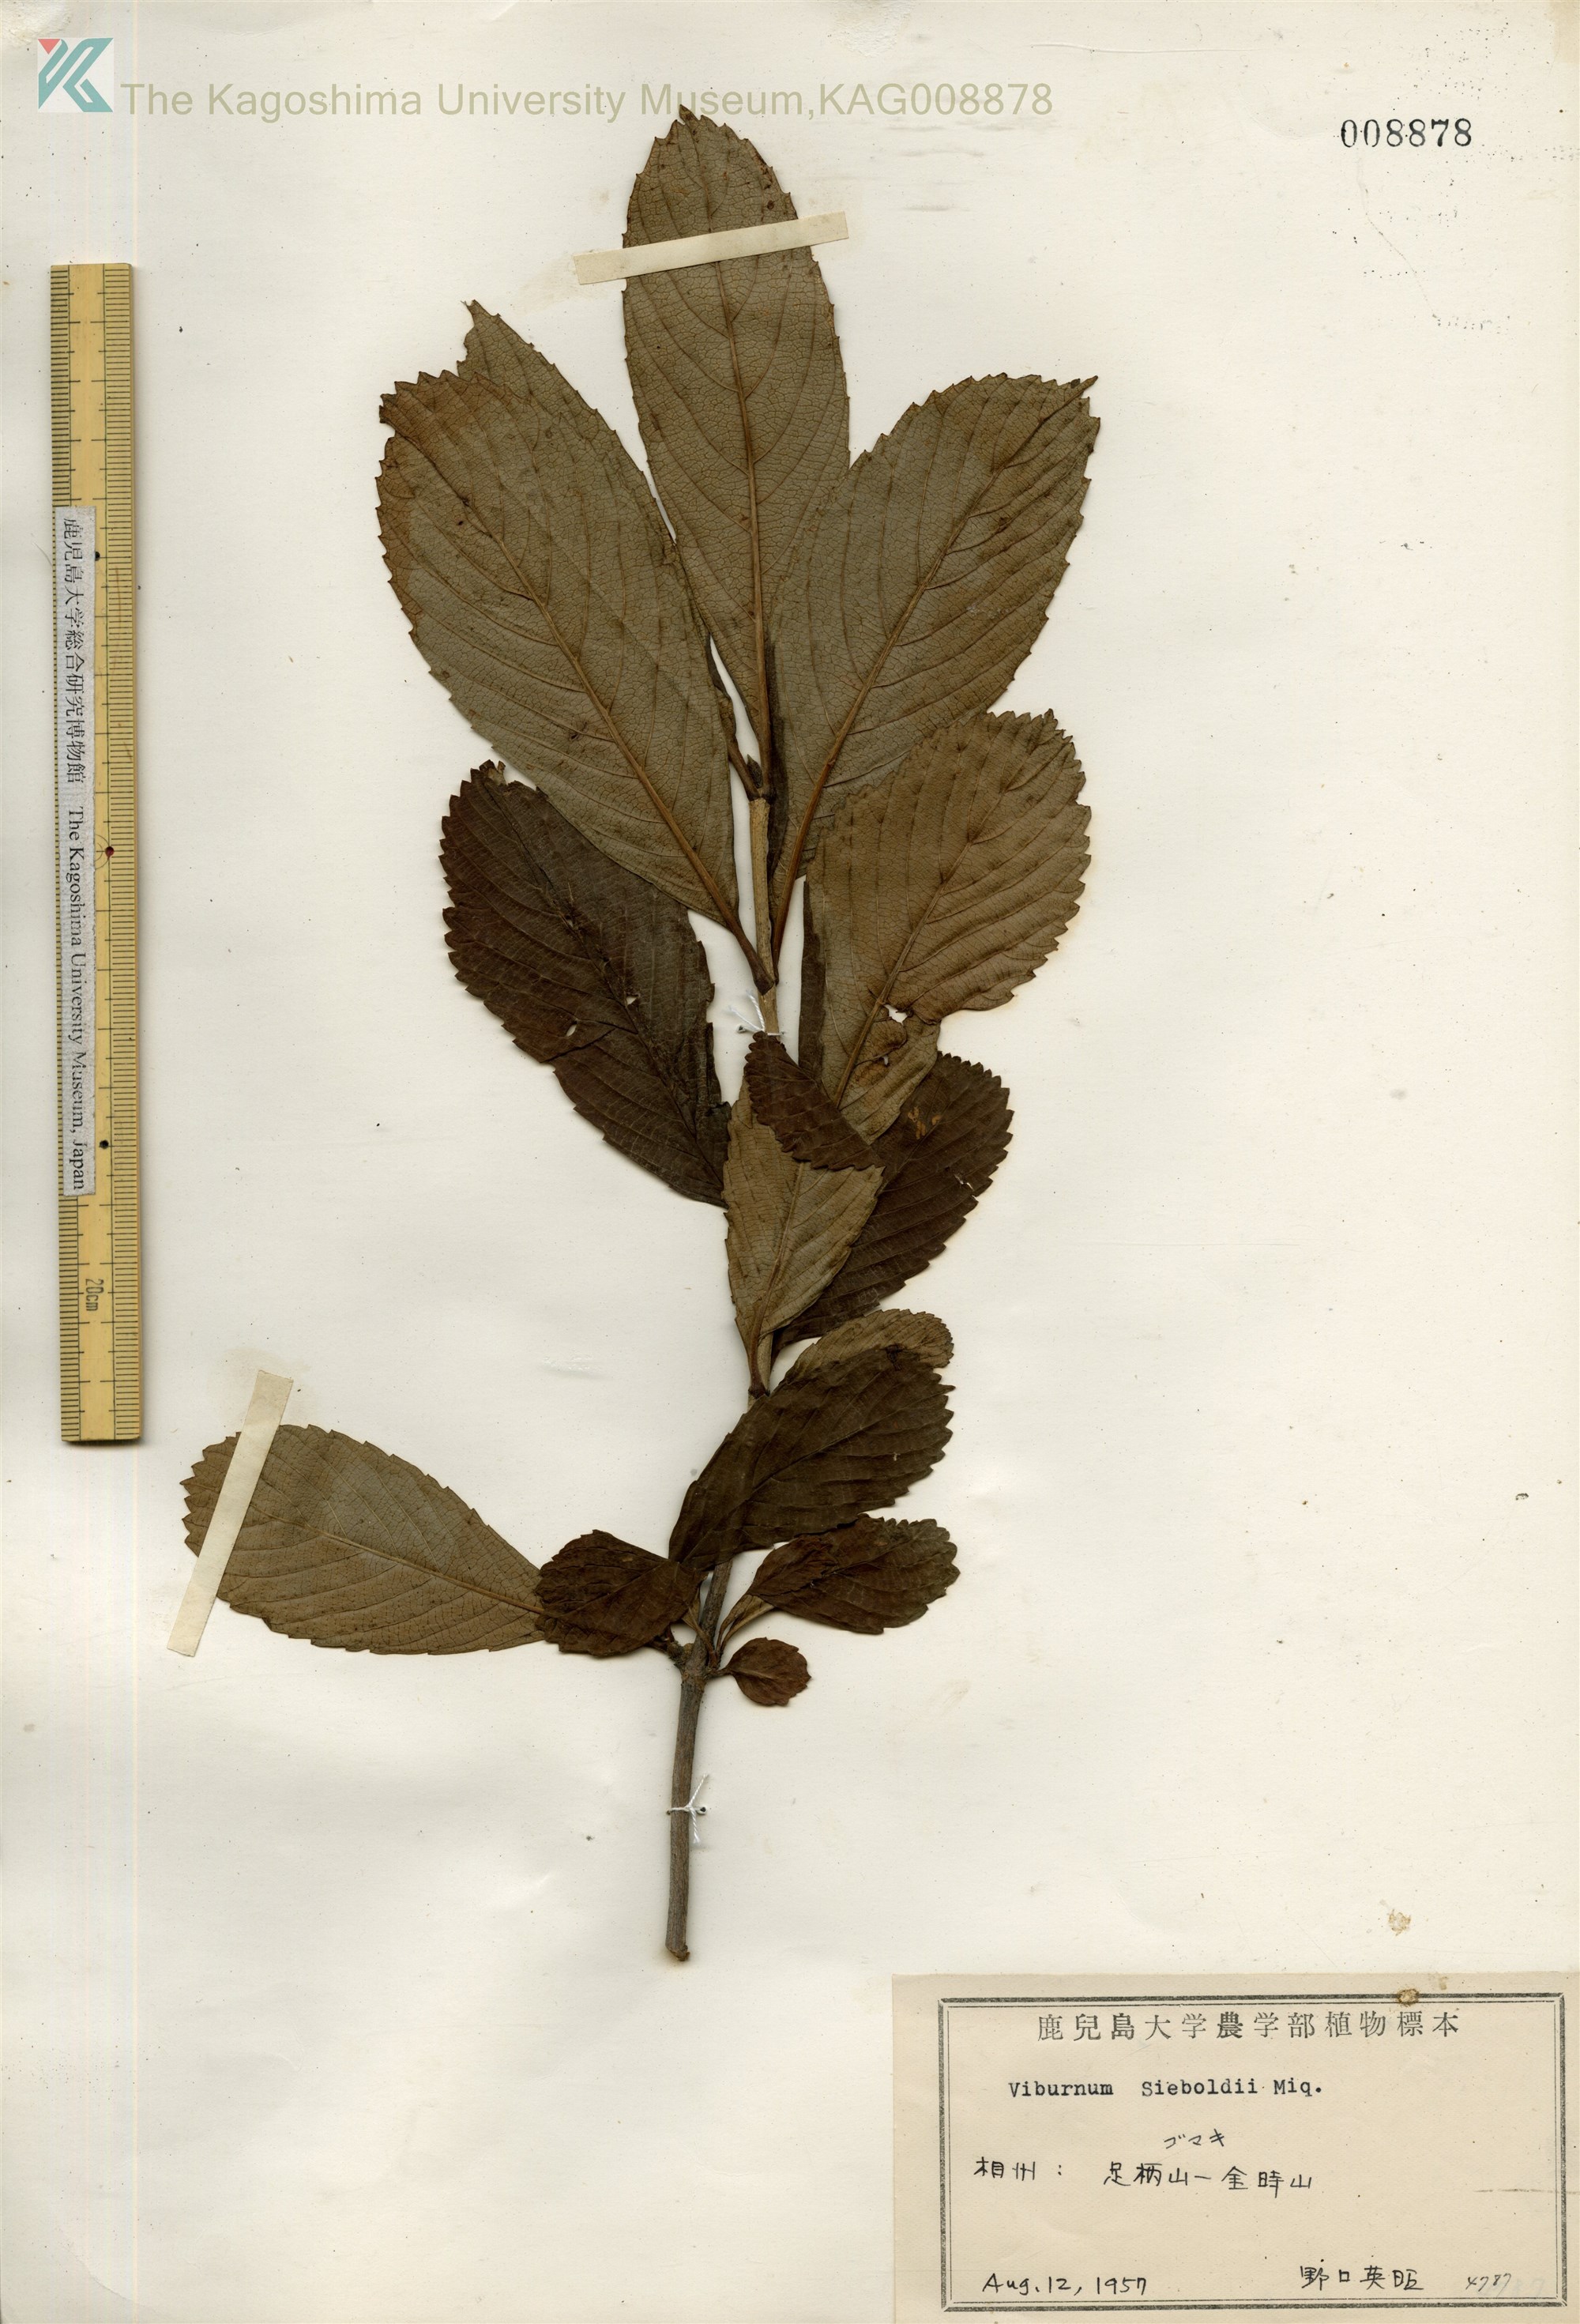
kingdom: Plantae
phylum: Tracheophyta
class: Magnoliopsida
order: Dipsacales
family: Viburnaceae
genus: Viburnum
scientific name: Viburnum sieboldii
